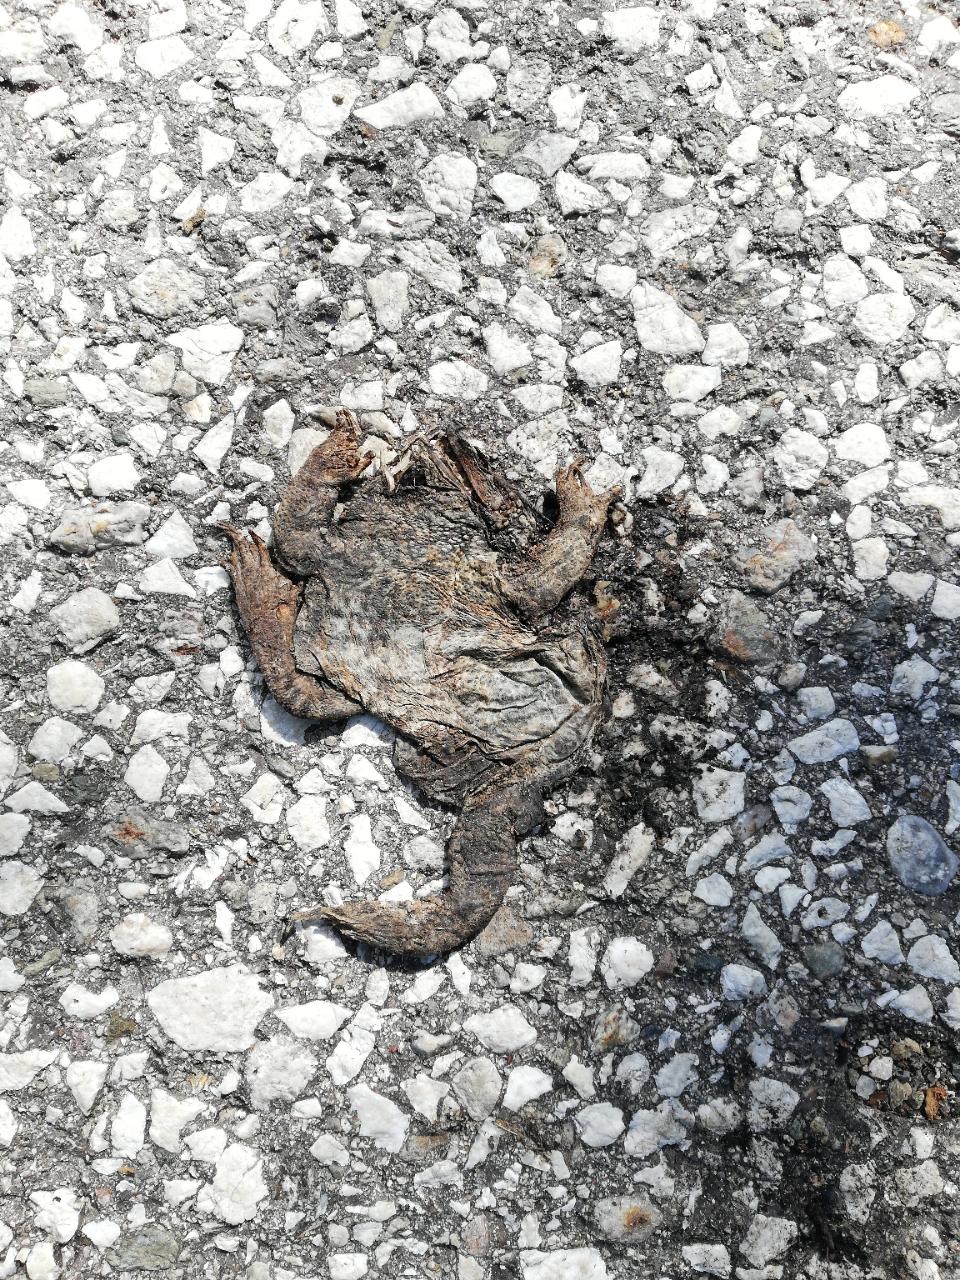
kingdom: Animalia
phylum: Chordata
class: Amphibia
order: Anura
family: Bufonidae
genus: Bufo
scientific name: Bufo bufo
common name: Common toad
